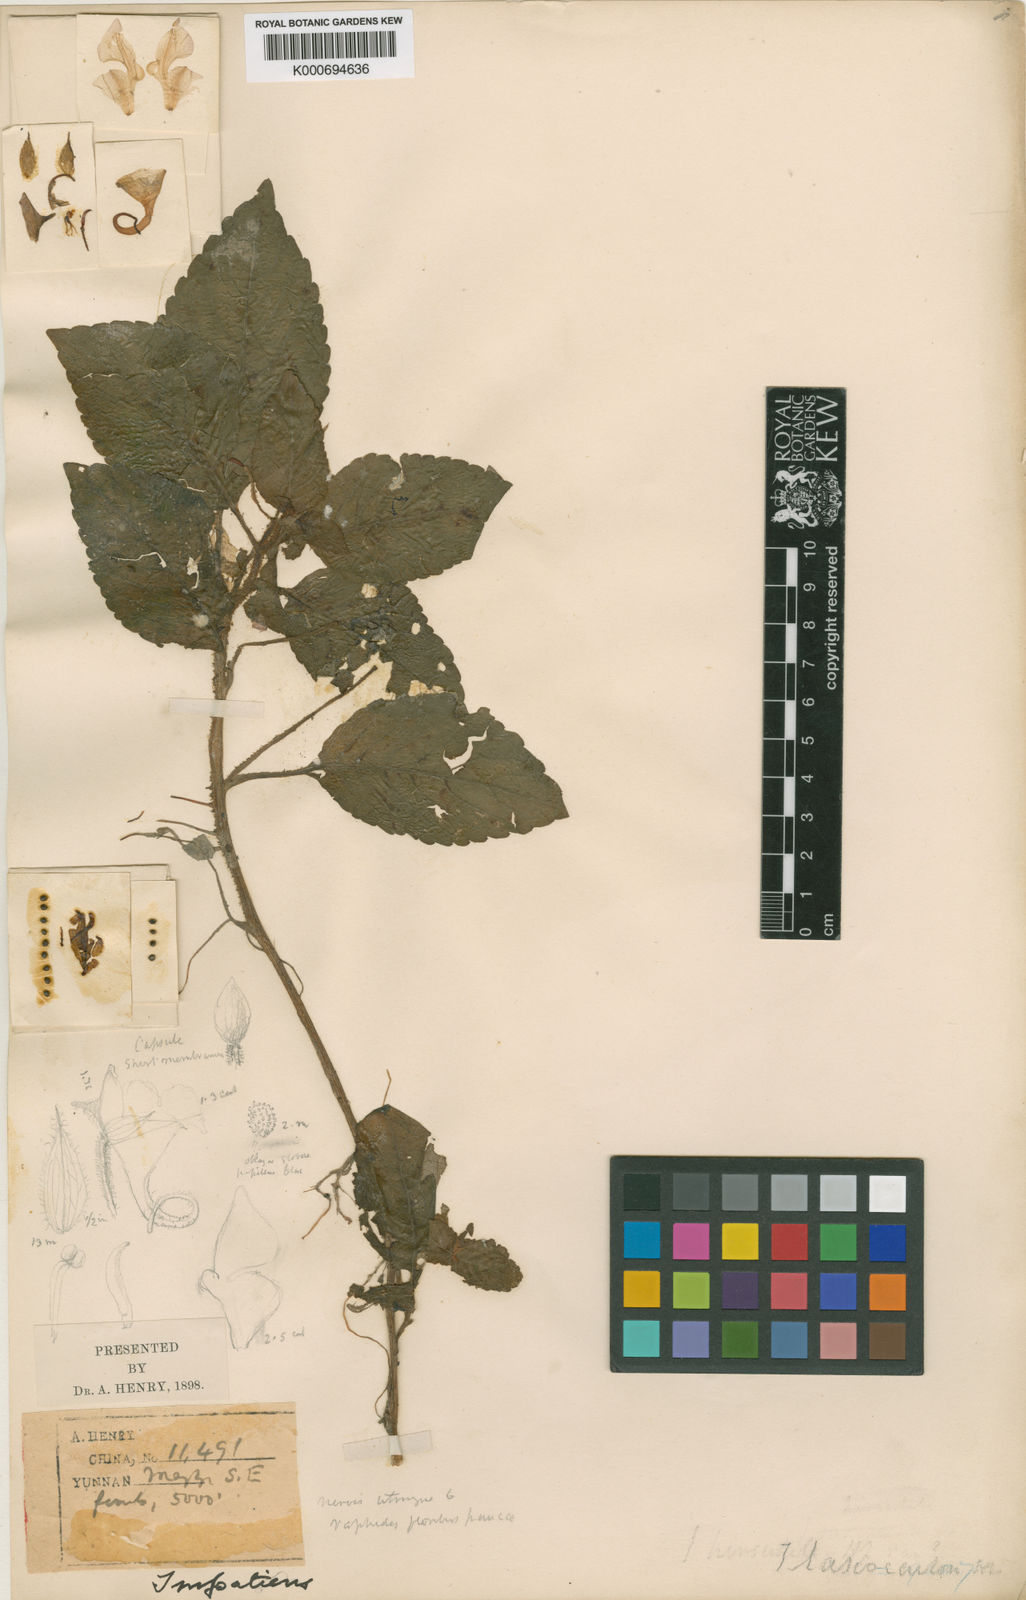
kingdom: Plantae
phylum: Tracheophyta
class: Magnoliopsida
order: Ericales
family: Balsaminaceae
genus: Impatiens
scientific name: Impatiens
